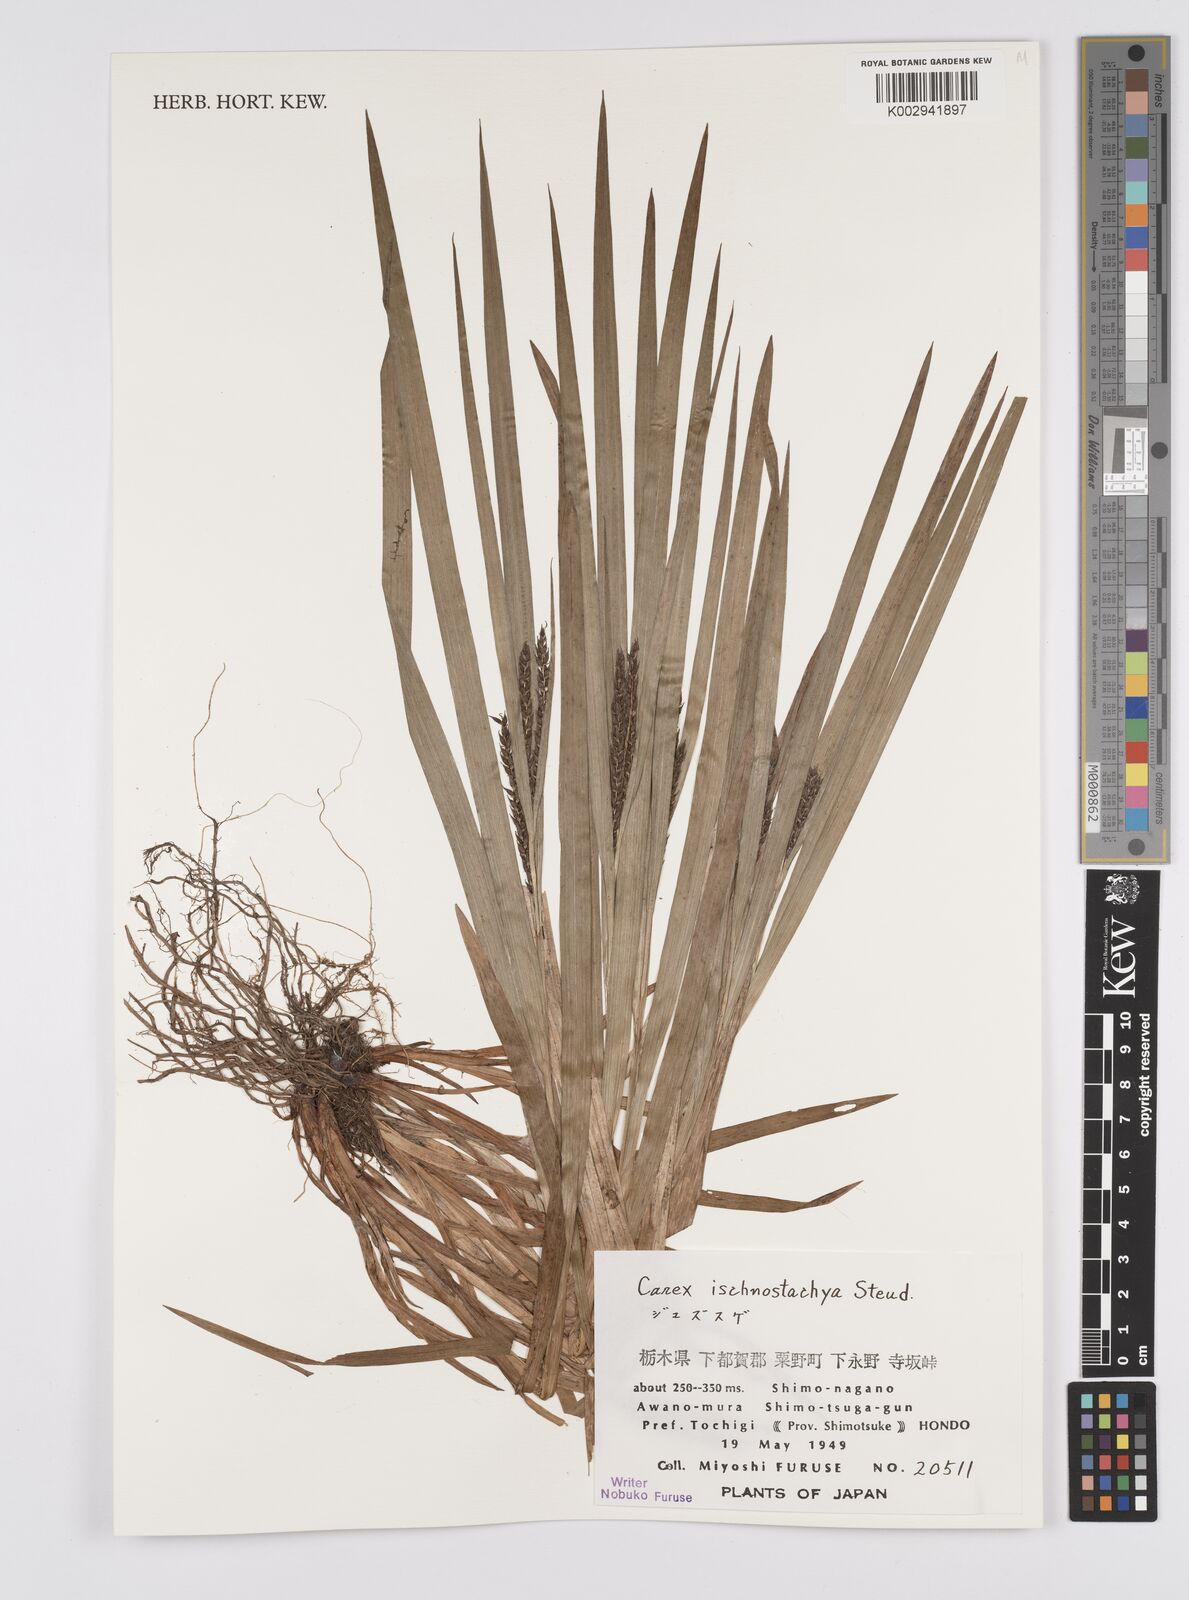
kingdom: Plantae
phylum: Tracheophyta
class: Liliopsida
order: Poales
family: Cyperaceae
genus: Carex
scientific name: Carex ischnostachya
